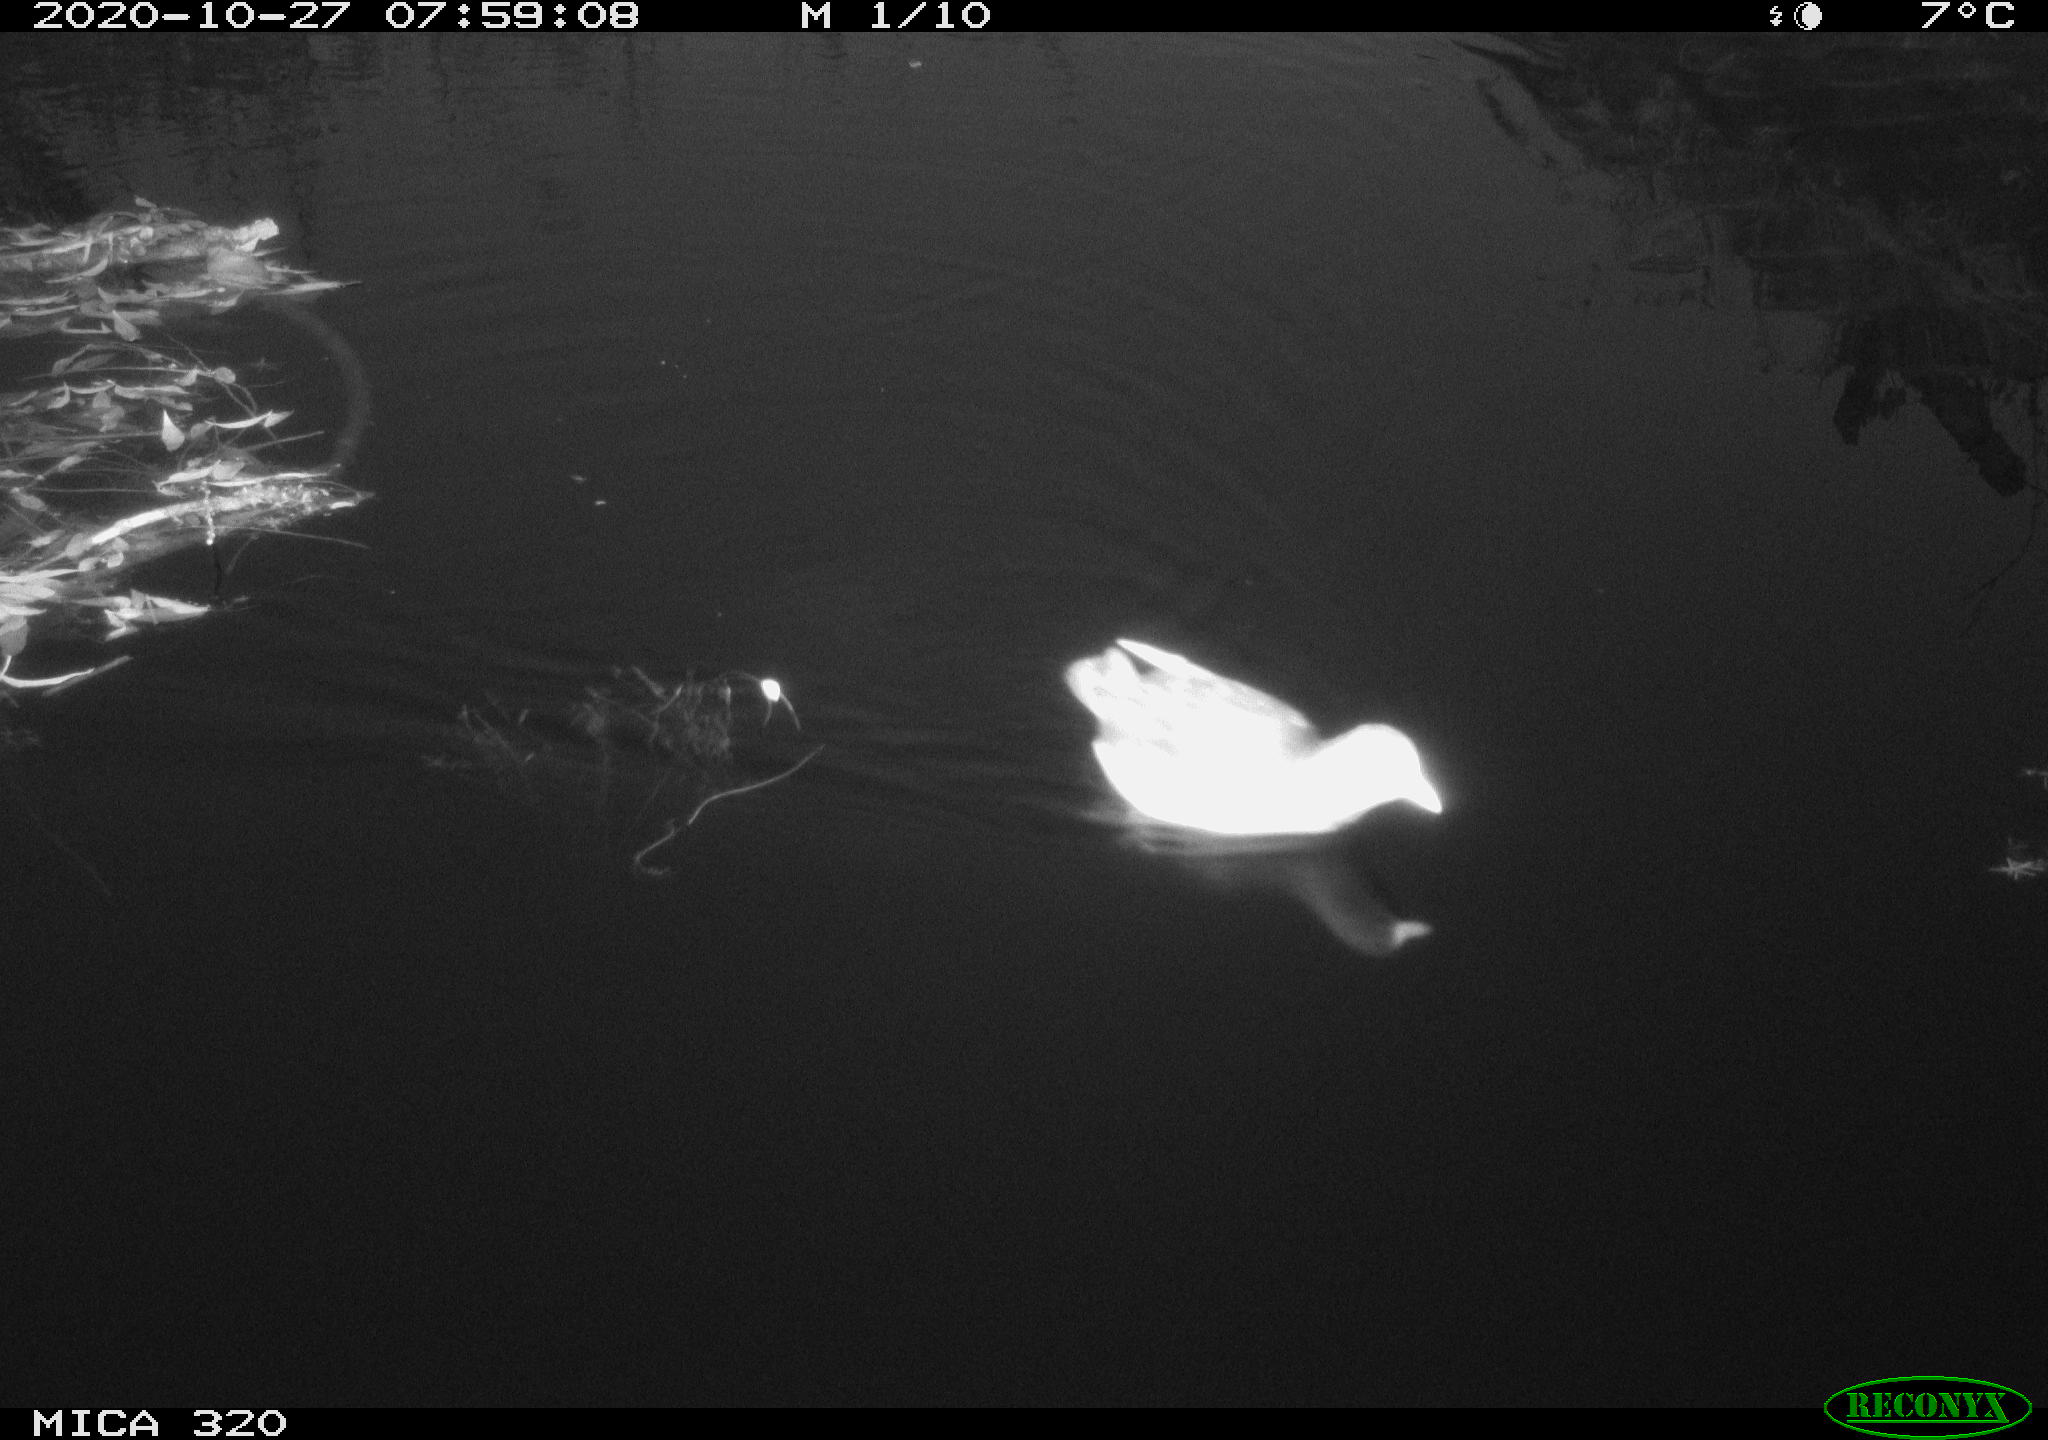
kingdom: Animalia
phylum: Chordata
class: Aves
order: Gruiformes
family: Rallidae
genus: Gallinula
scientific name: Gallinula chloropus
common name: Common moorhen
